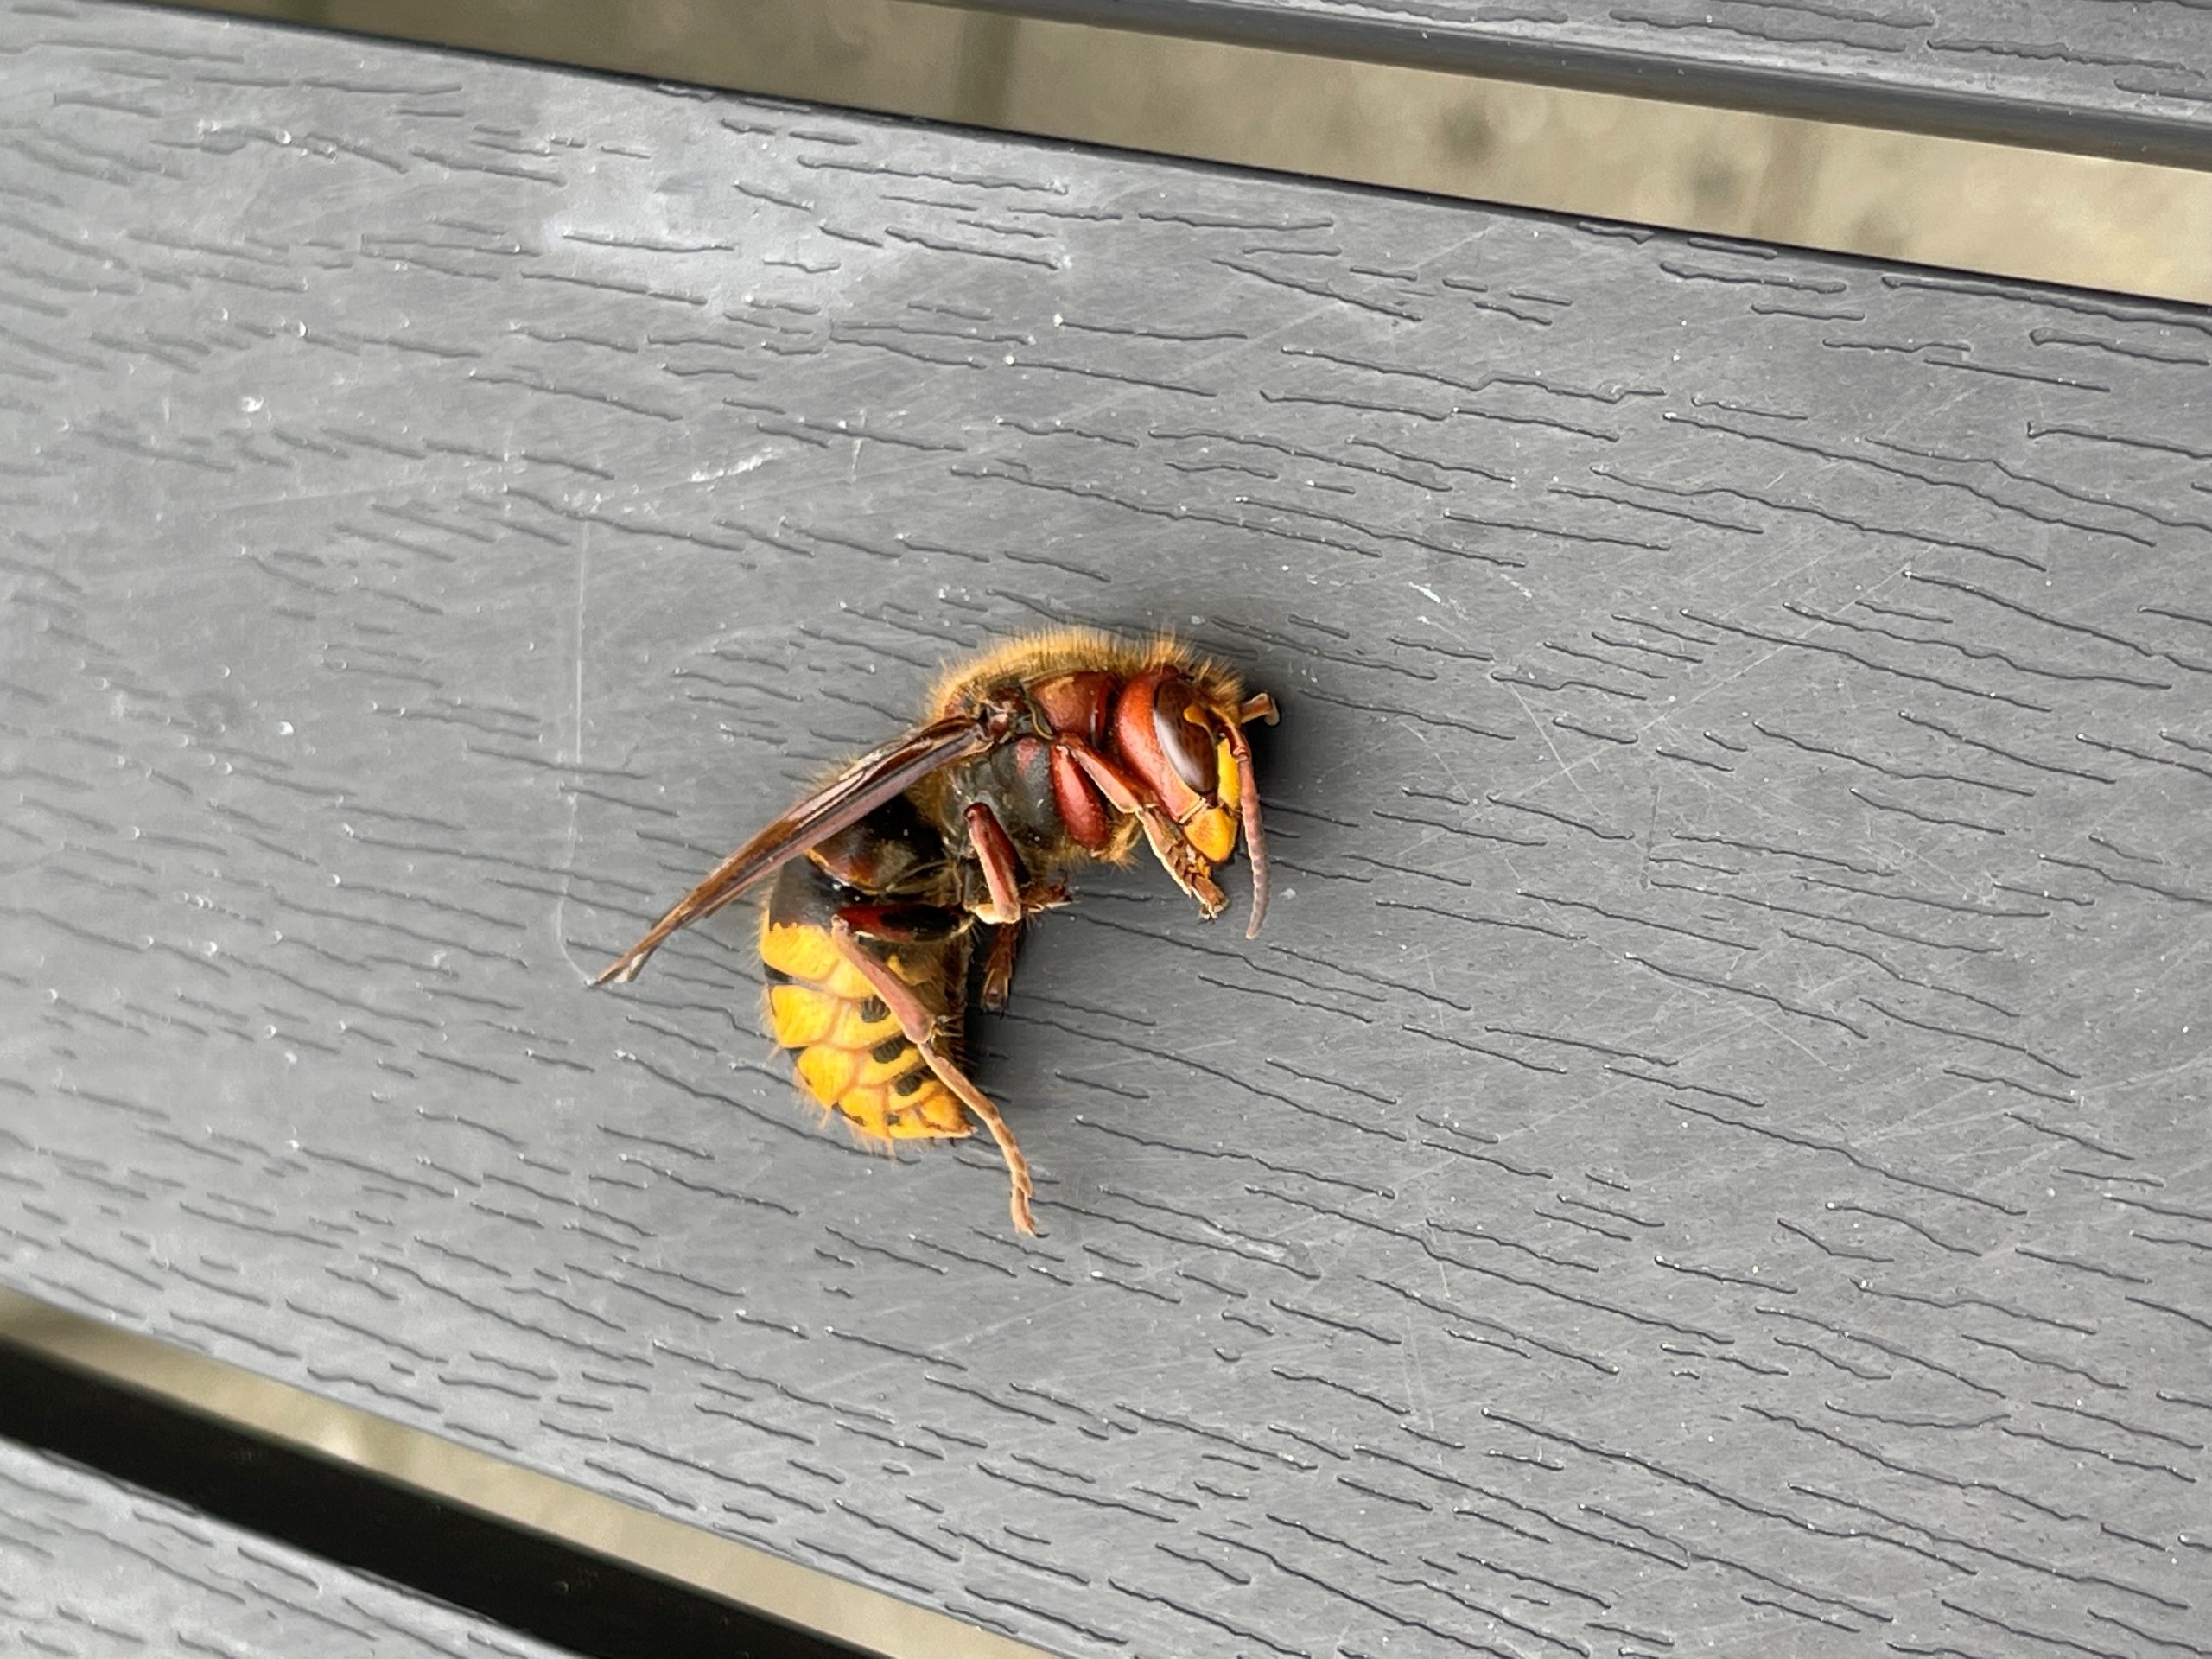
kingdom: Animalia
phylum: Arthropoda
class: Insecta
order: Hymenoptera
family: Vespidae
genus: Vespa
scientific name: Vespa crabro
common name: Stor gedehams
